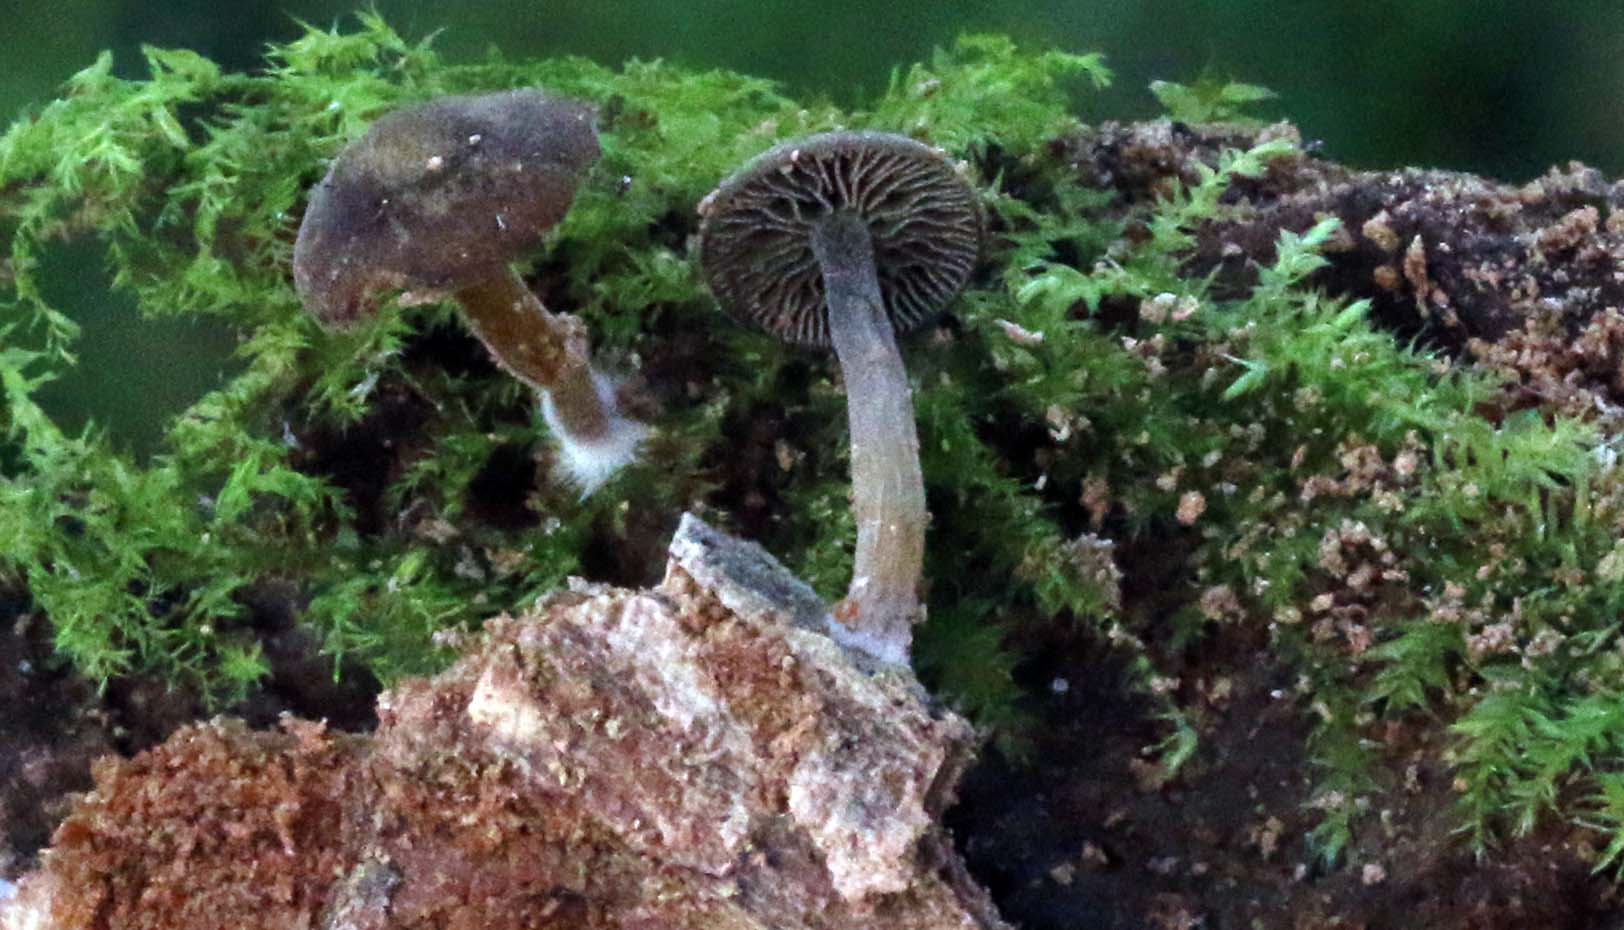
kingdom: Fungi
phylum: Basidiomycota
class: Agaricomycetes
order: Agaricales
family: Crepidotaceae
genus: Simocybe
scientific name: Simocybe centunculus
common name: enlig skyggehat
